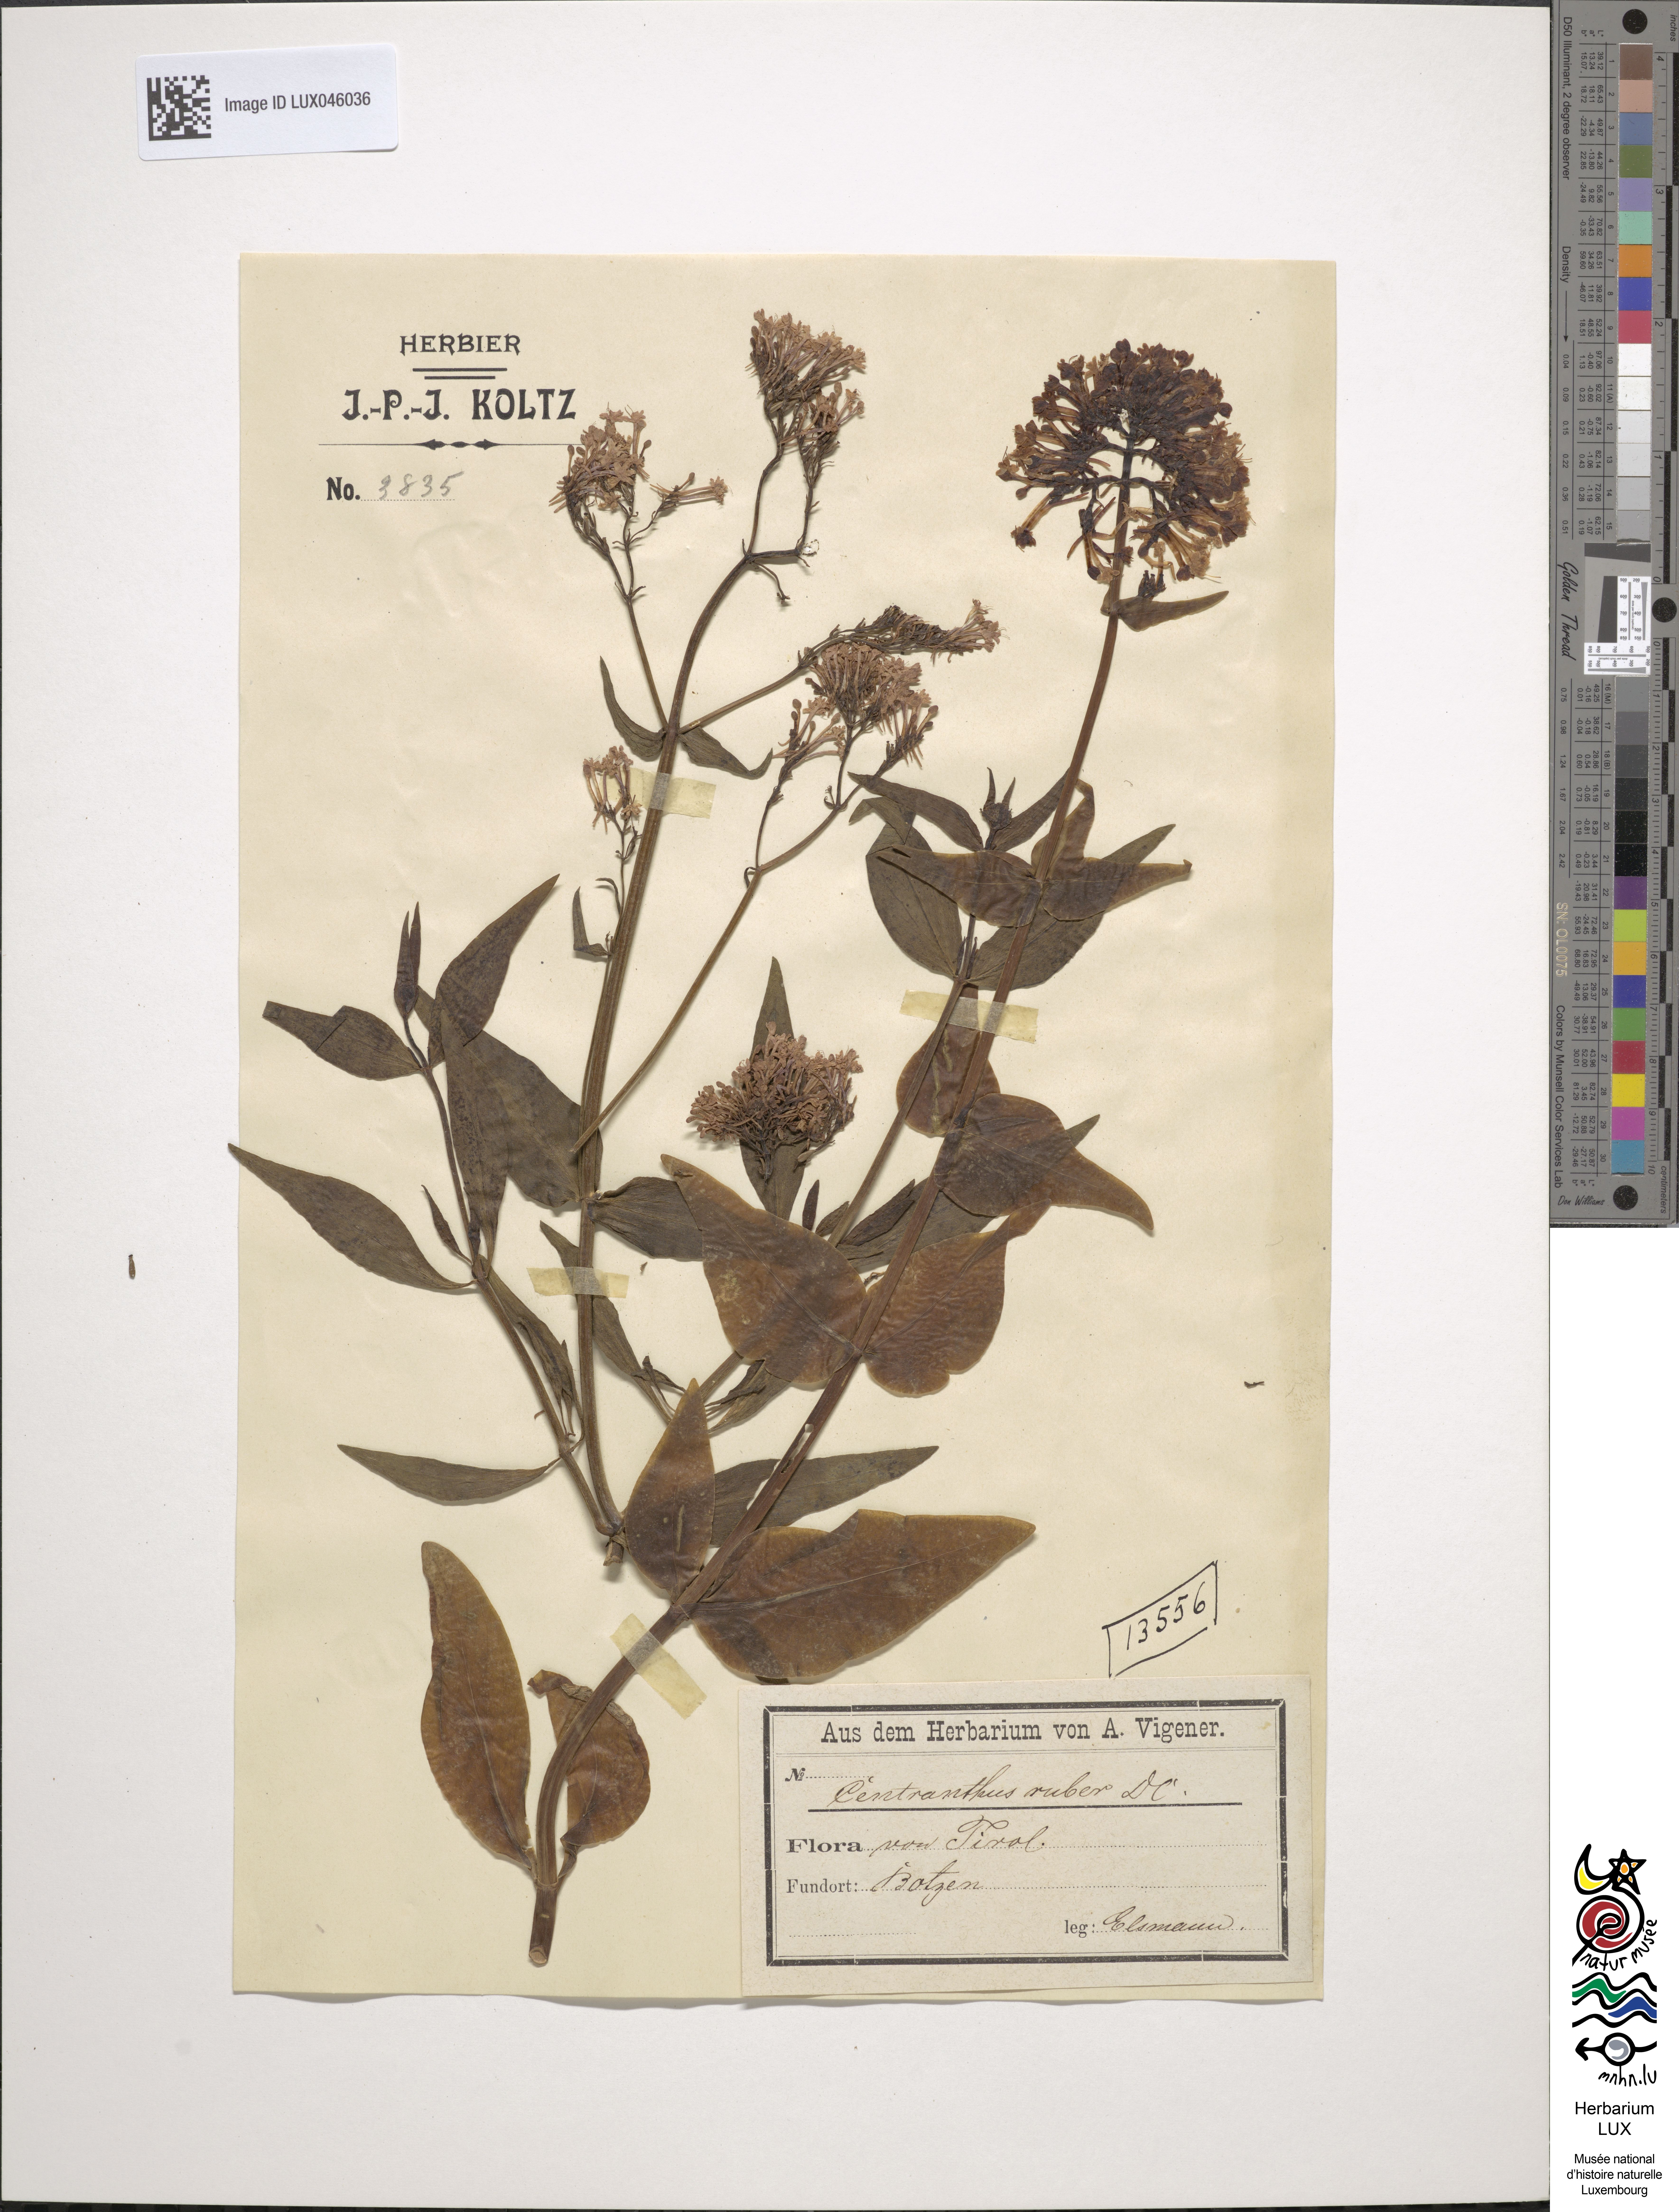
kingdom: Plantae
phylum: Tracheophyta
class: Magnoliopsida
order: Dipsacales
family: Caprifoliaceae
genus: Centranthus
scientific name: Centranthus ruber
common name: Red valerian
